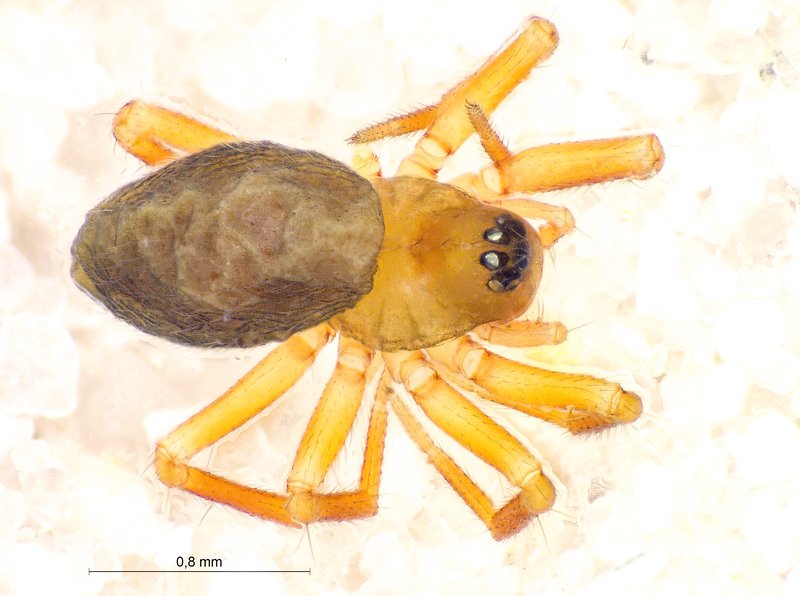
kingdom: Animalia
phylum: Arthropoda
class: Arachnida
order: Araneae
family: Linyphiidae
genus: Pocadicnemis
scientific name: Pocadicnemis pumila
